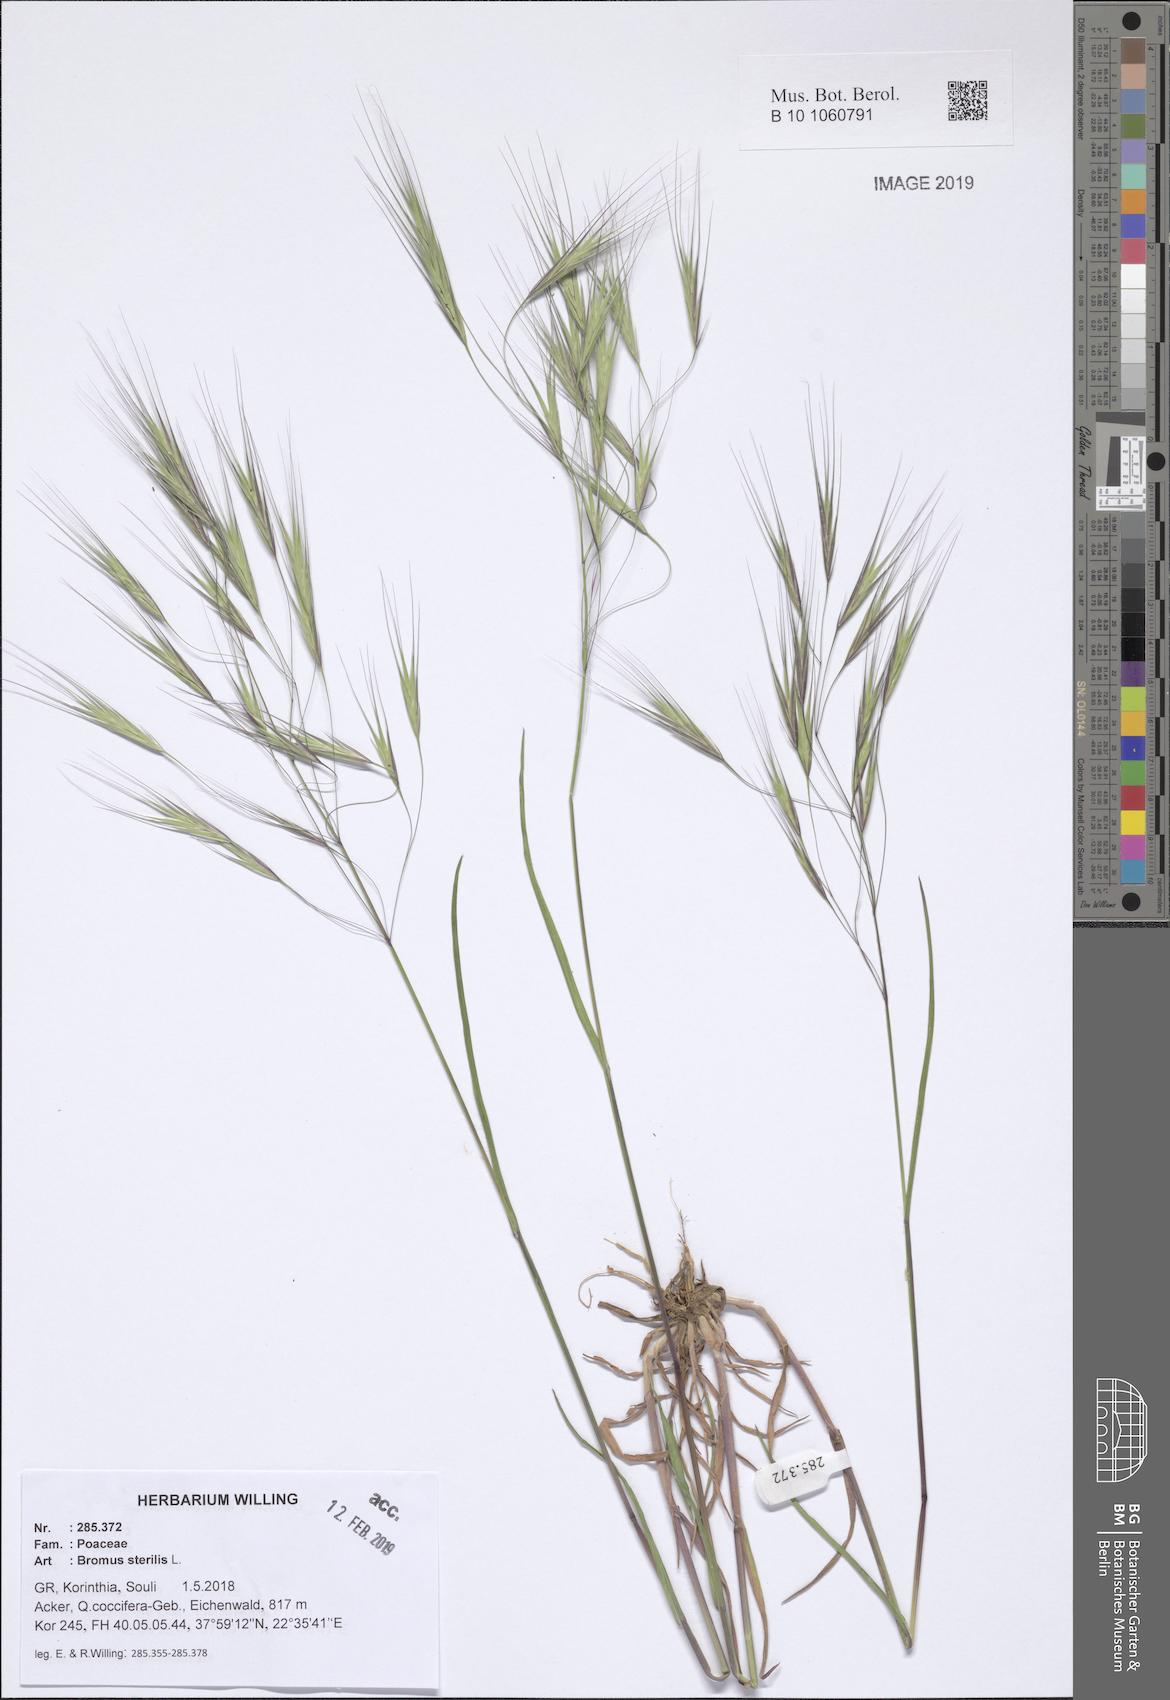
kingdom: Plantae
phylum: Tracheophyta
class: Liliopsida
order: Poales
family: Poaceae
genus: Bromus
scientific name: Bromus sterilis
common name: Poverty brome
